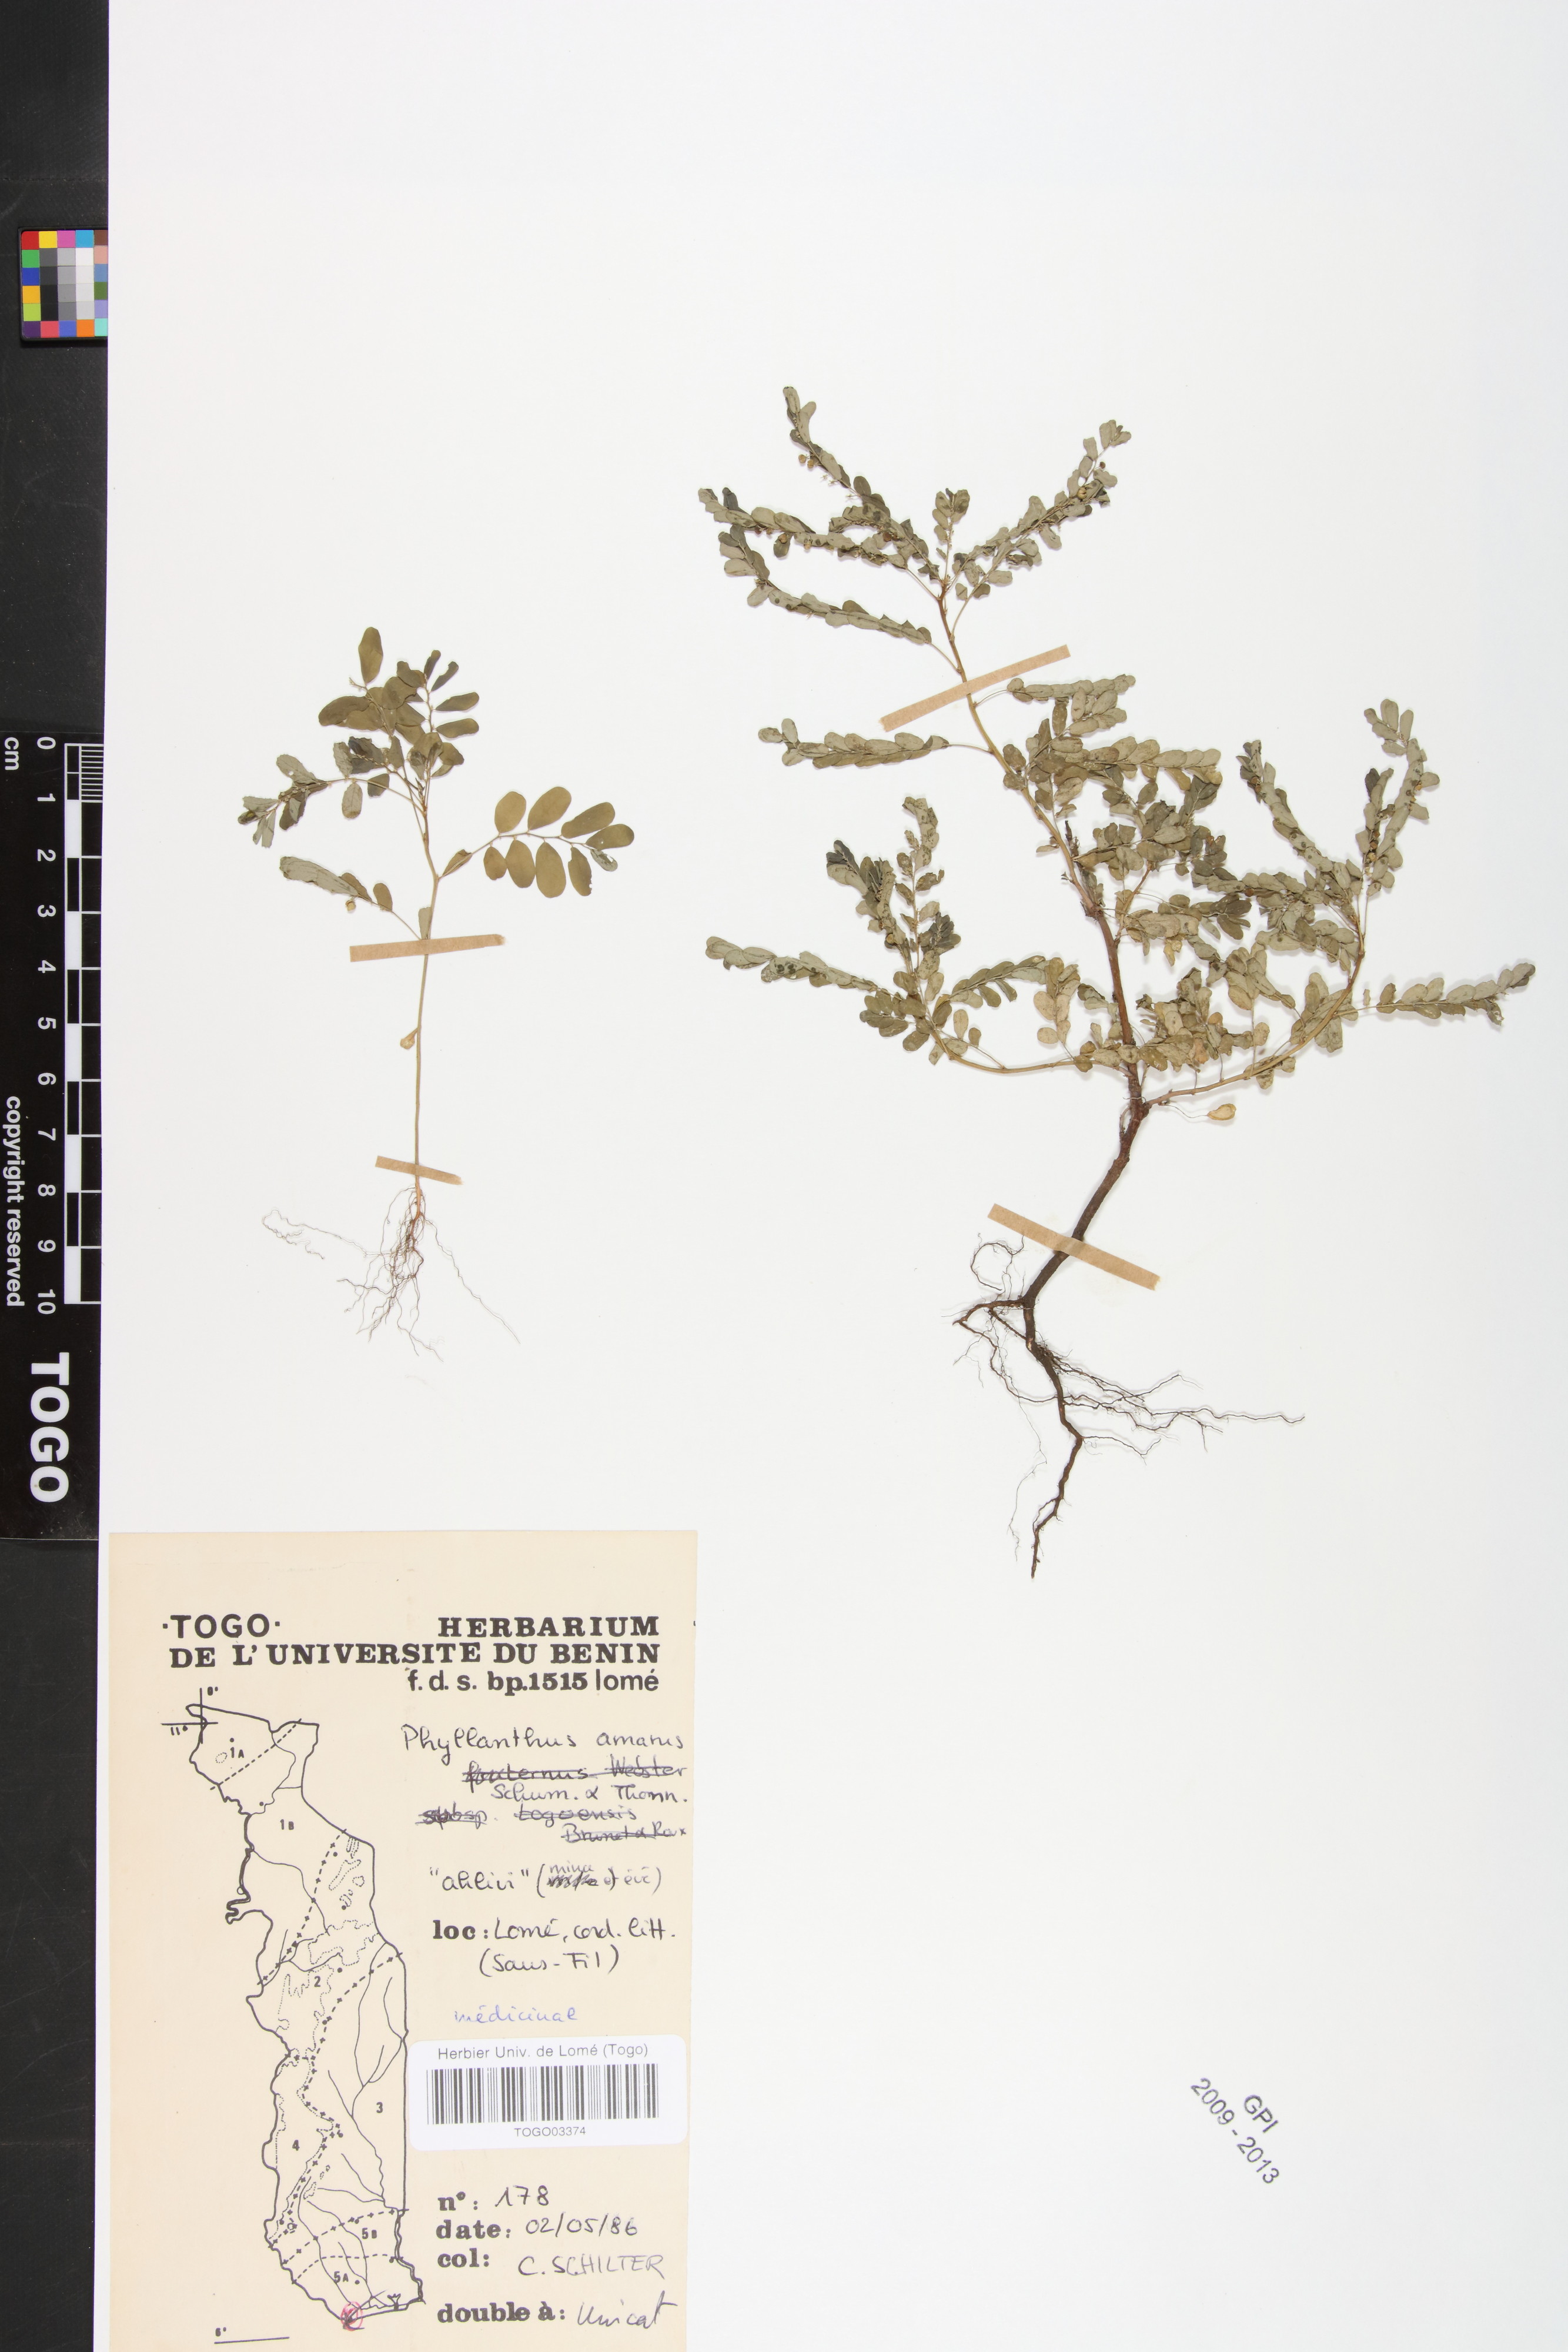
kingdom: Plantae
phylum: Tracheophyta
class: Magnoliopsida
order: Malpighiales
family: Phyllanthaceae
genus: Phyllanthus
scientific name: Phyllanthus amarus
